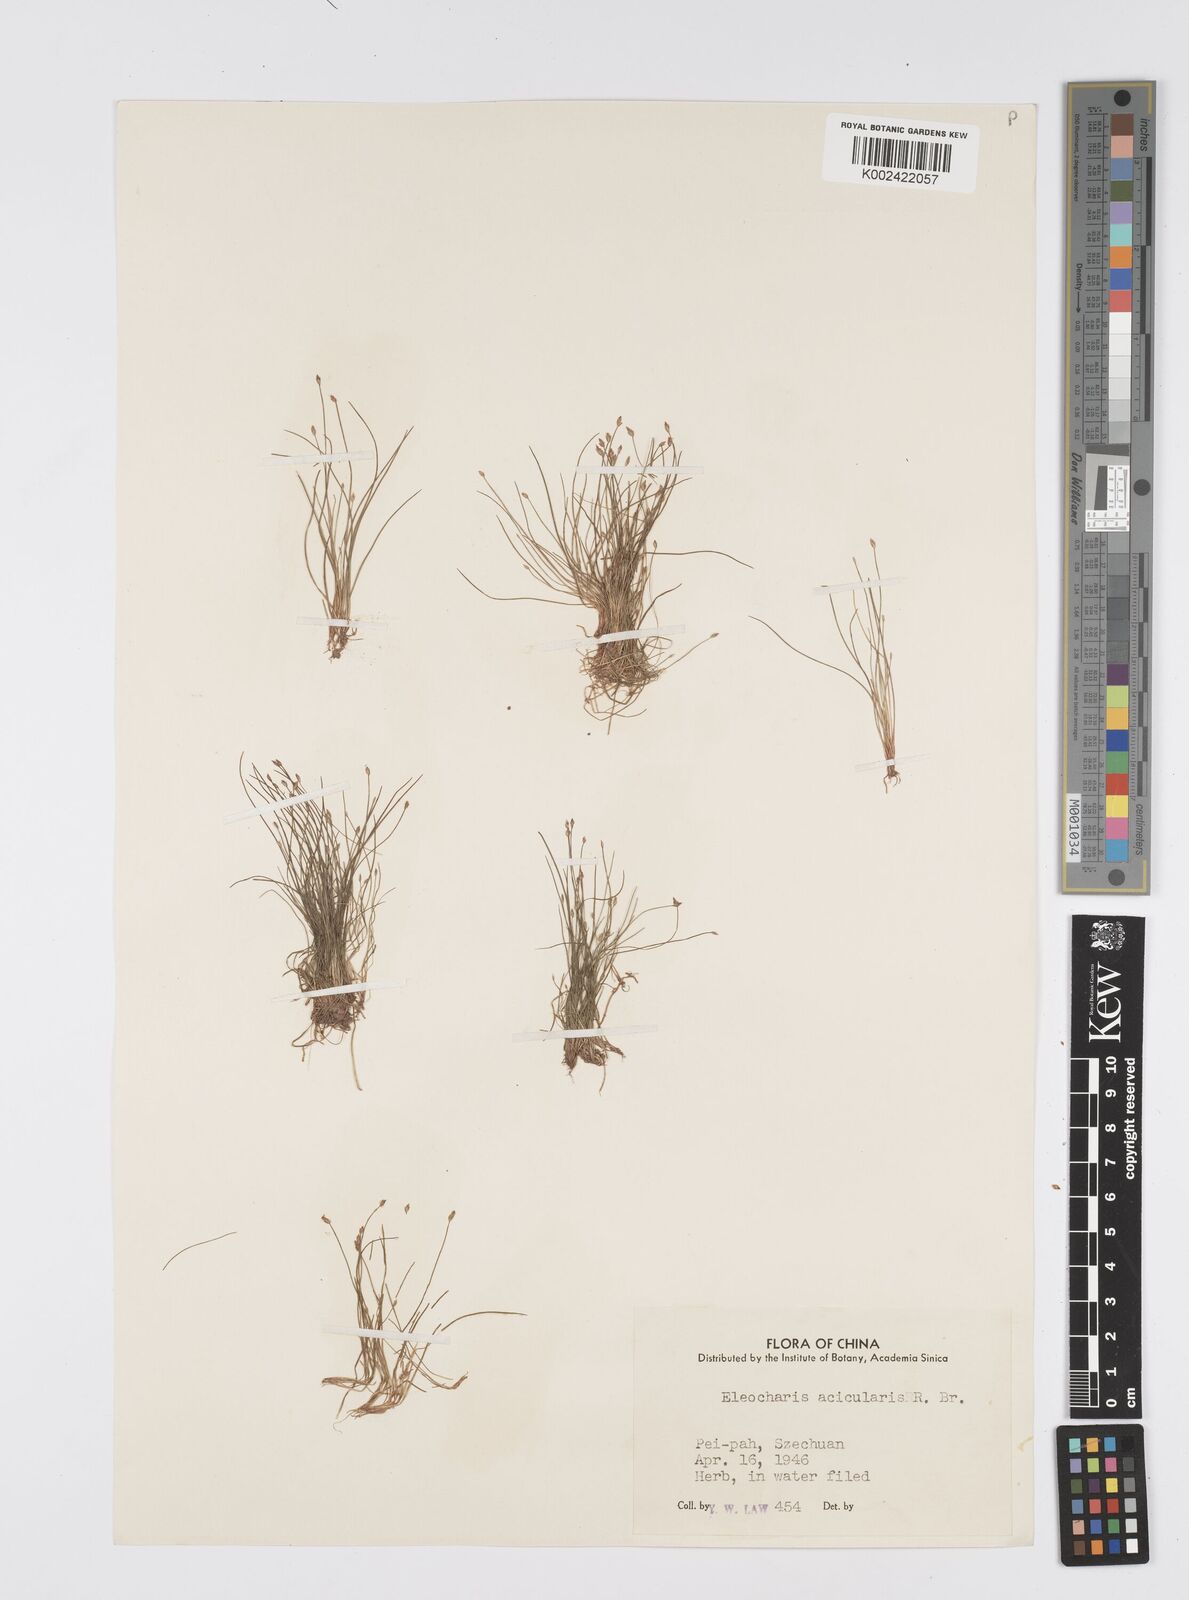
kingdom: Plantae
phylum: Tracheophyta
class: Liliopsida
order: Poales
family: Cyperaceae
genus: Eleocharis
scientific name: Eleocharis acicularis
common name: Needle spike-rush
